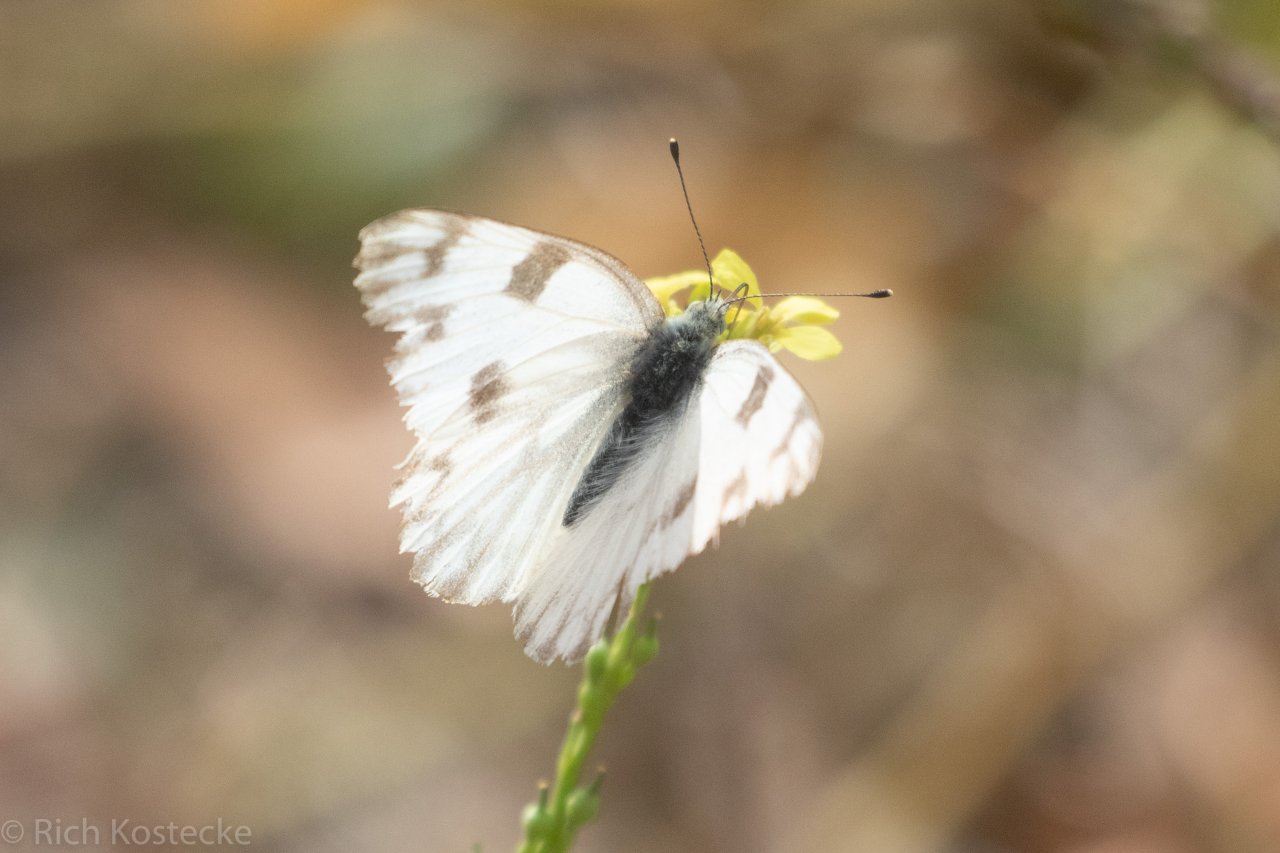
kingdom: Animalia
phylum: Arthropoda
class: Insecta
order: Lepidoptera
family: Pieridae
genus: Pontia
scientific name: Pontia protodice
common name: Checkered White
